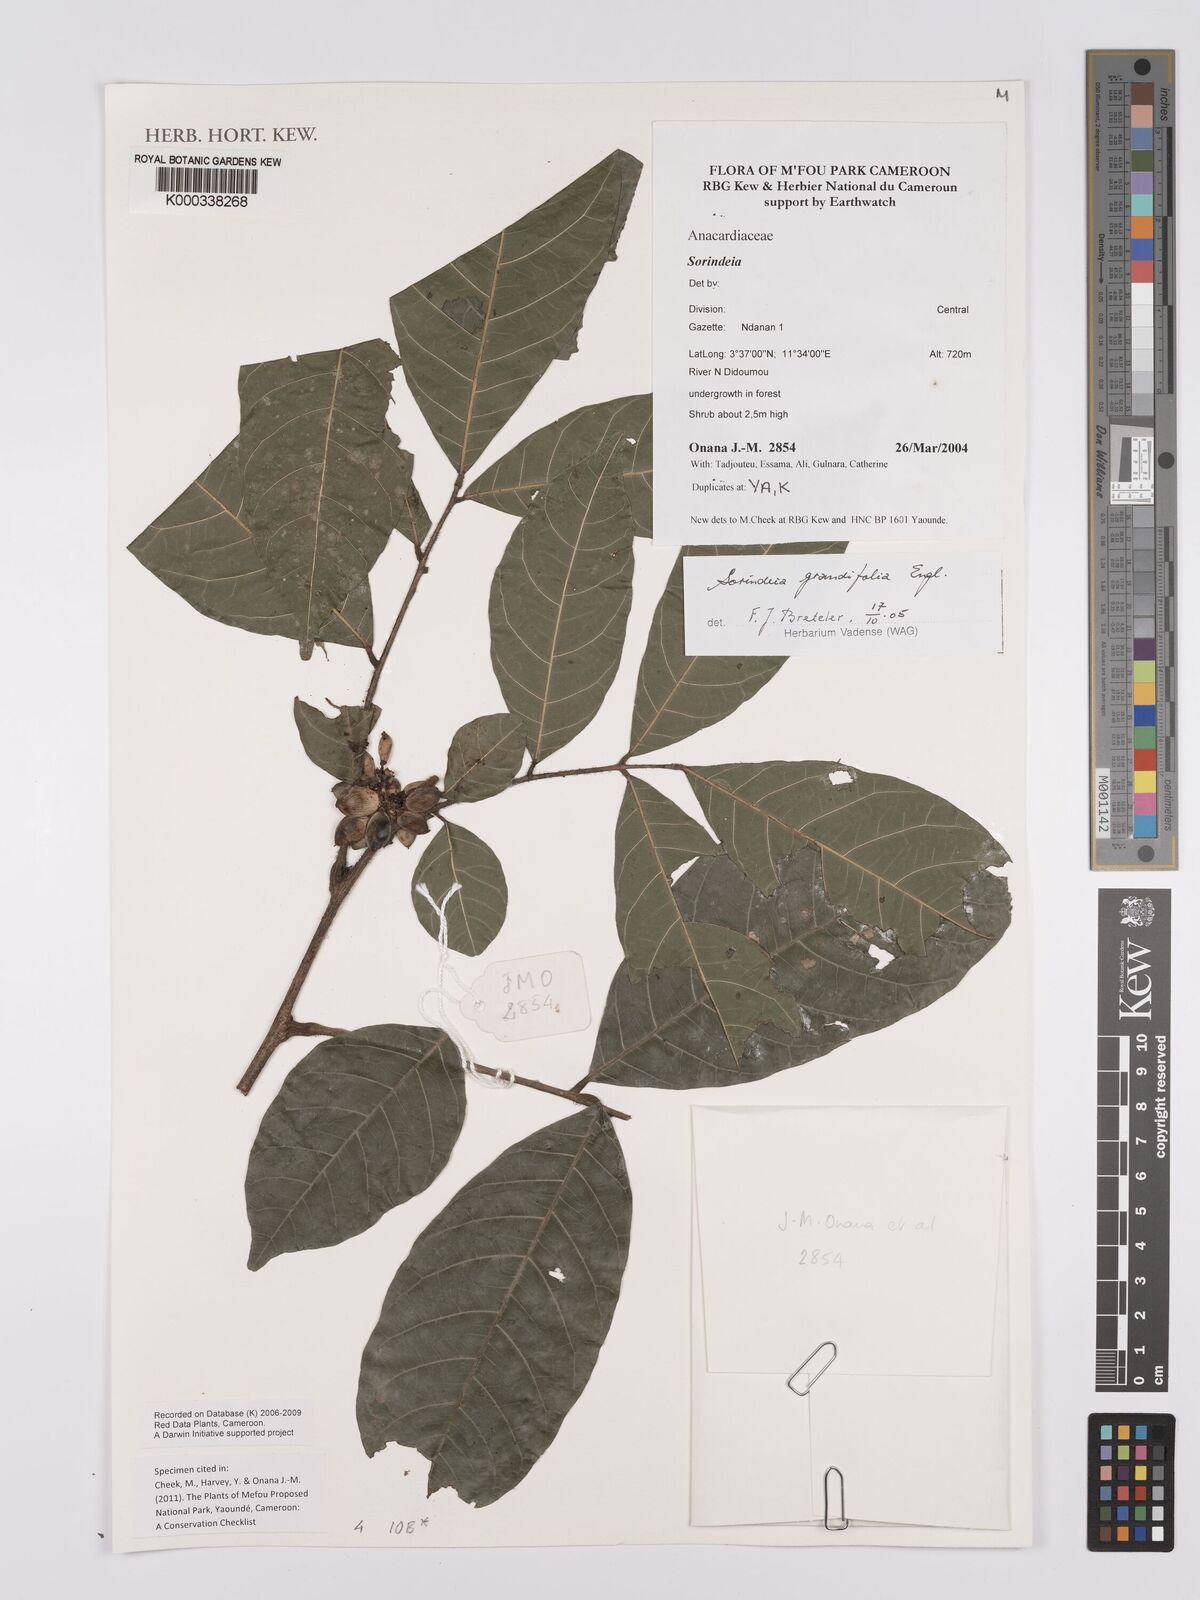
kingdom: Plantae
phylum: Tracheophyta
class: Magnoliopsida
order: Sapindales
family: Anacardiaceae
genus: Sorindeia
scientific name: Sorindeia grandifolia
